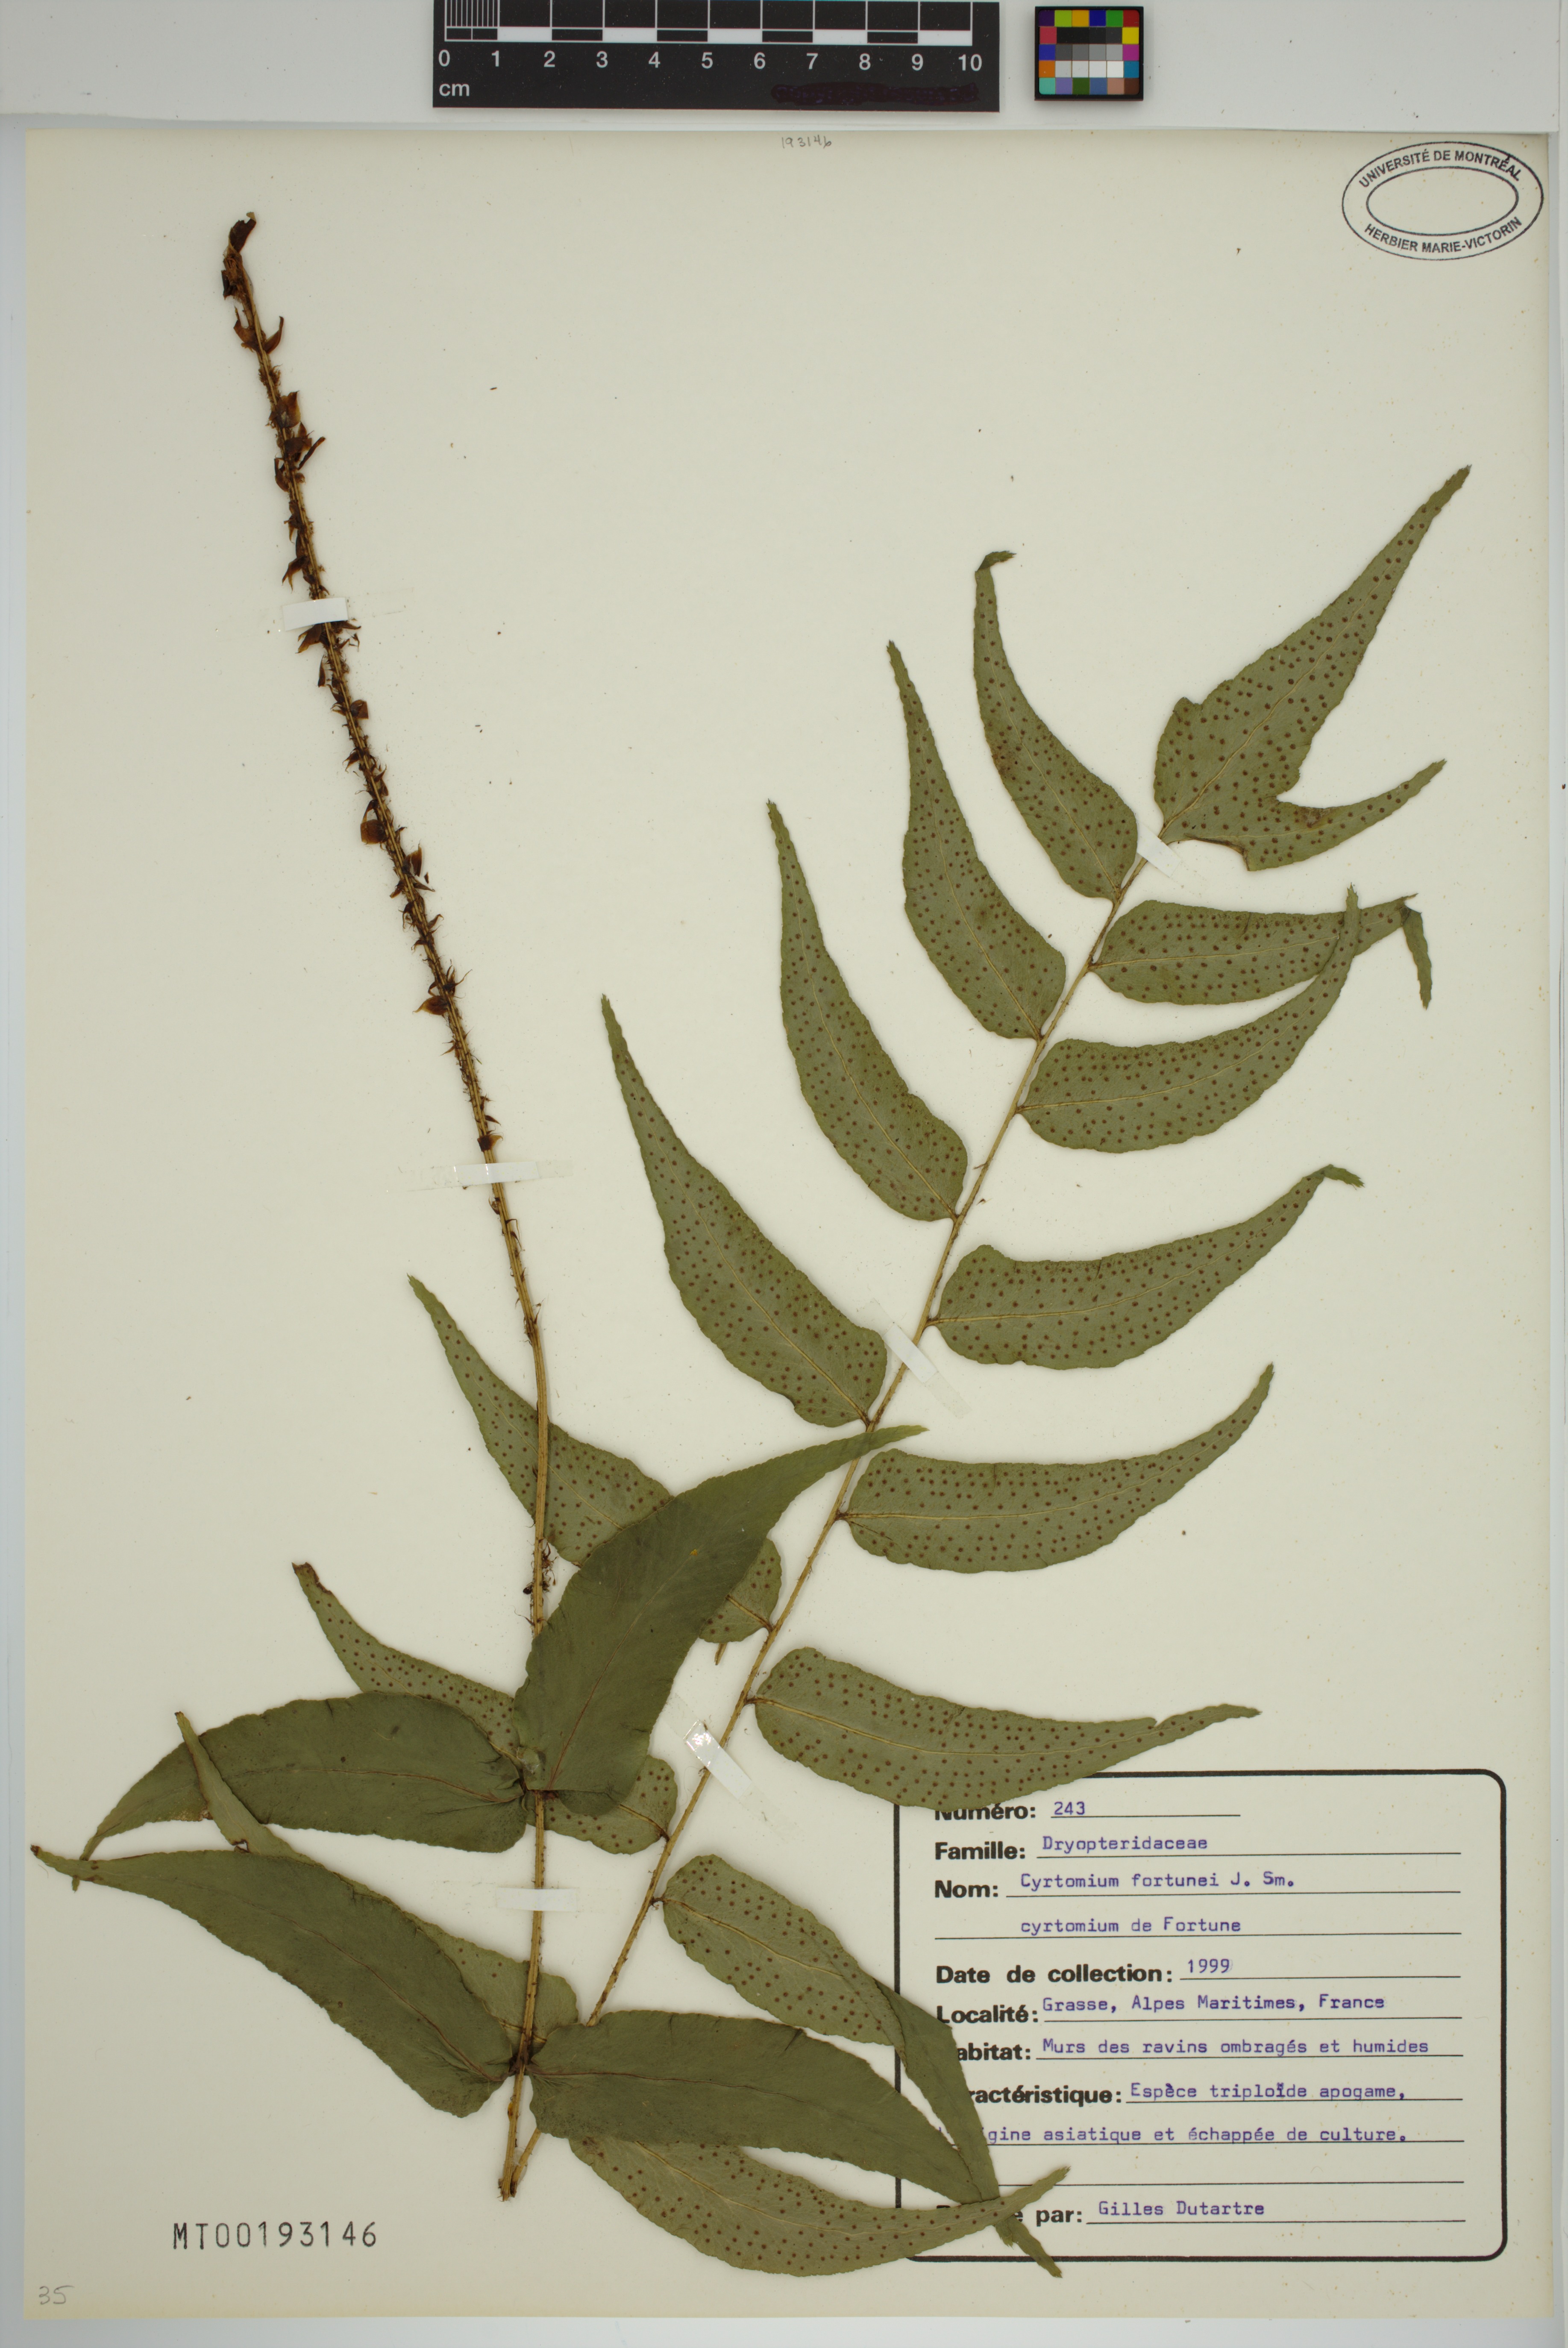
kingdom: Plantae
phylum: Tracheophyta
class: Polypodiopsida
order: Polypodiales
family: Dryopteridaceae
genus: Cyrtomium
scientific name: Cyrtomium fortunei
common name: Asian netvein hollyfern
